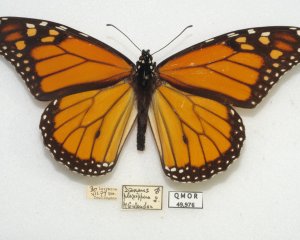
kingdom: Animalia
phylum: Arthropoda
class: Insecta
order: Lepidoptera
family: Nymphalidae
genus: Danaus
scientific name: Danaus plexippus
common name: Monarch
